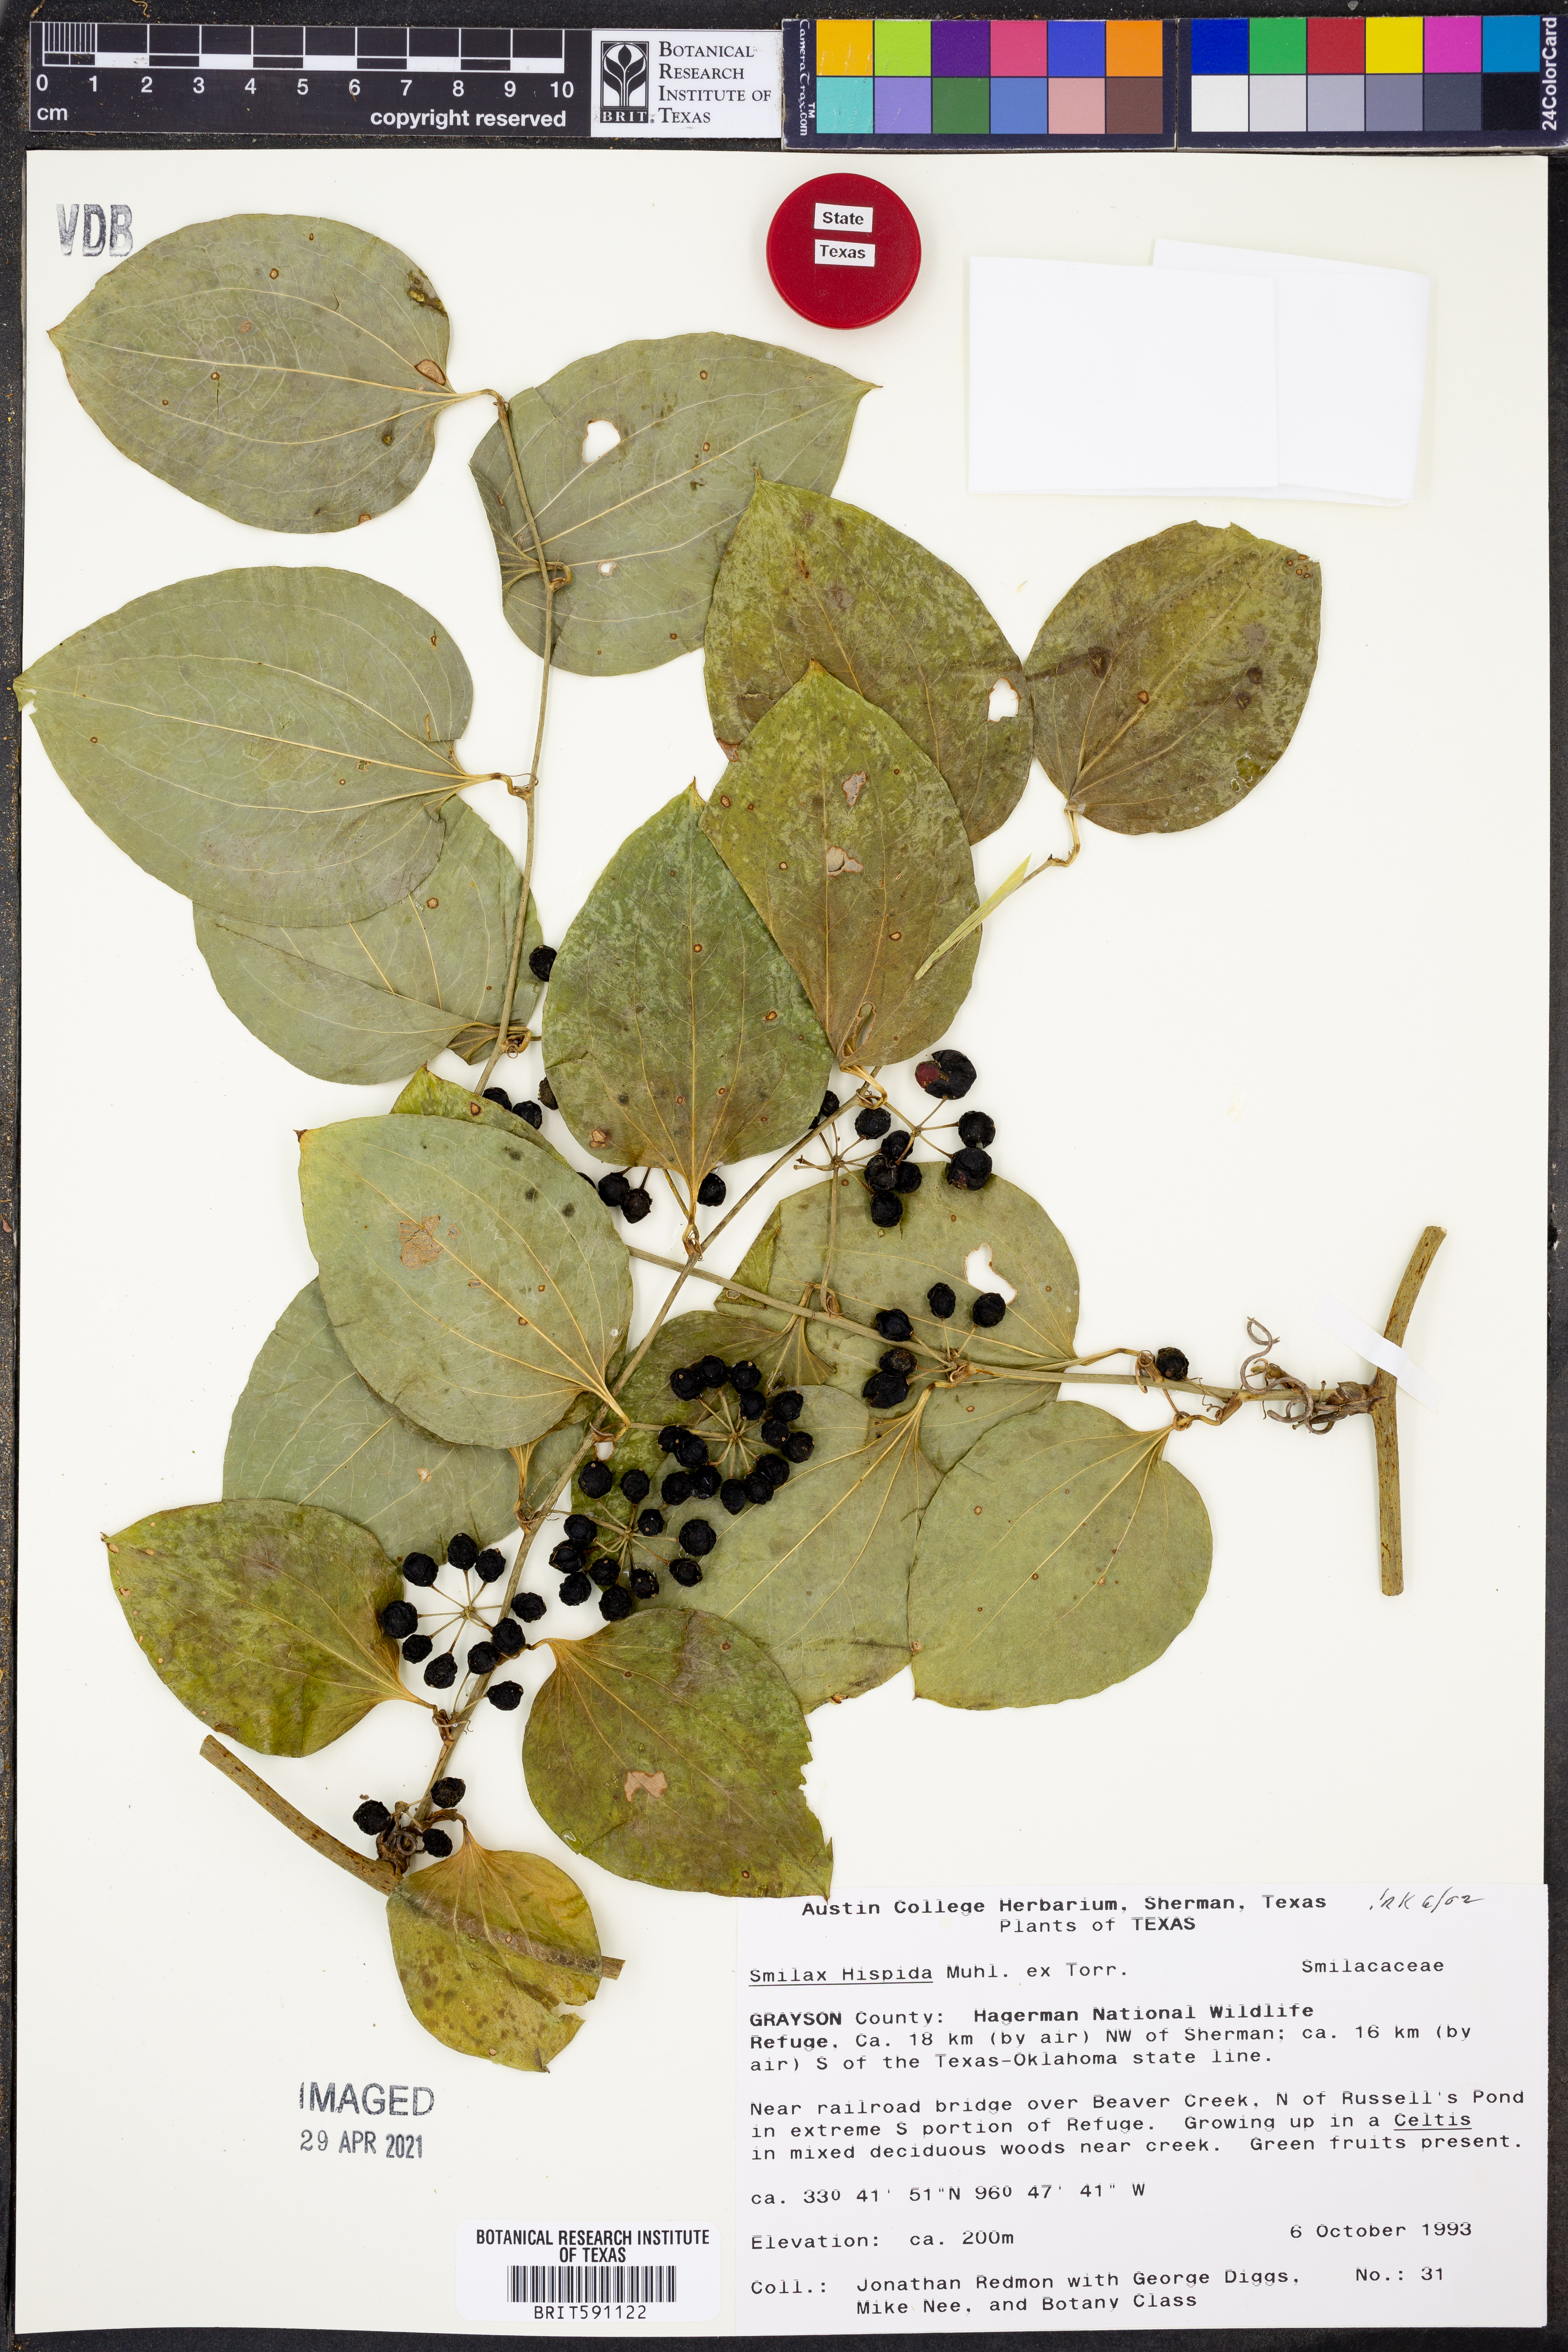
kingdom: Plantae
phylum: Tracheophyta
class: Liliopsida
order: Liliales
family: Smilacaceae
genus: Smilax
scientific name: Smilax tamnoides
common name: Hellfetter
